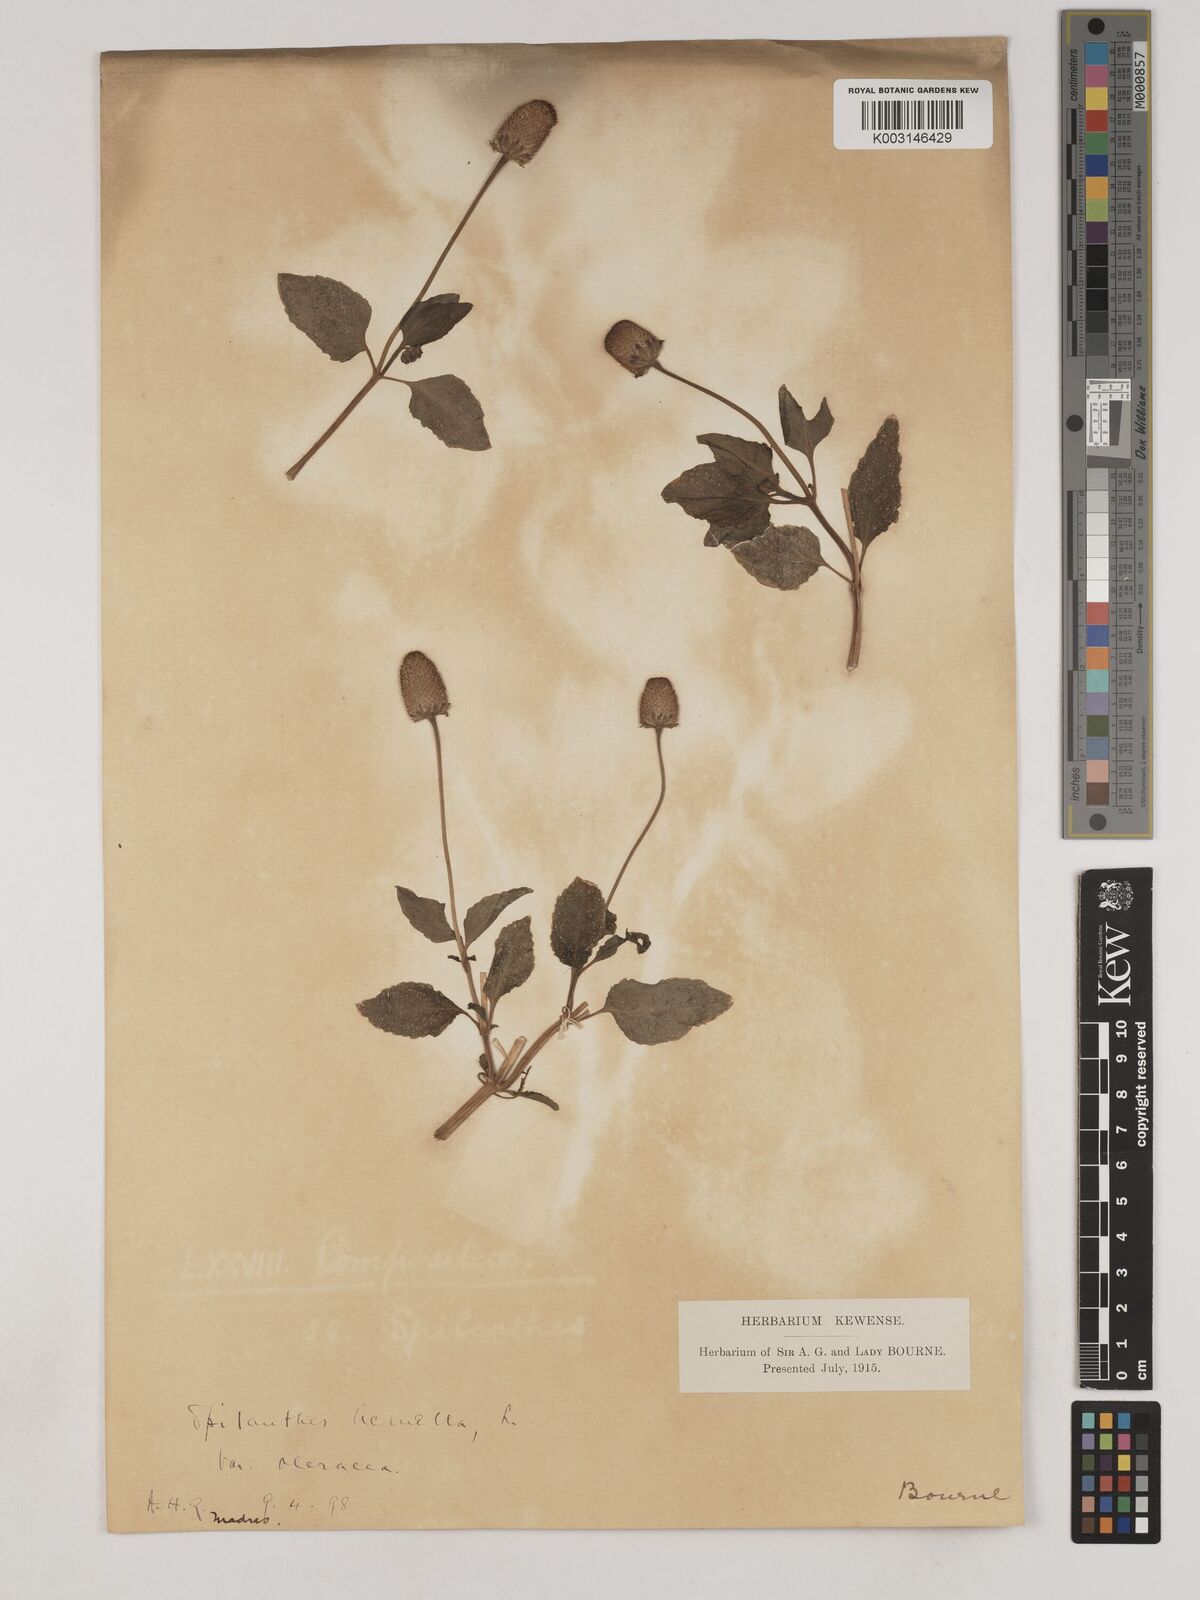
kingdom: Plantae
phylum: Tracheophyta
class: Magnoliopsida
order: Asterales
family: Asteraceae
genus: Acmella
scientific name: Acmella oleracea
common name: Brazilian cress
